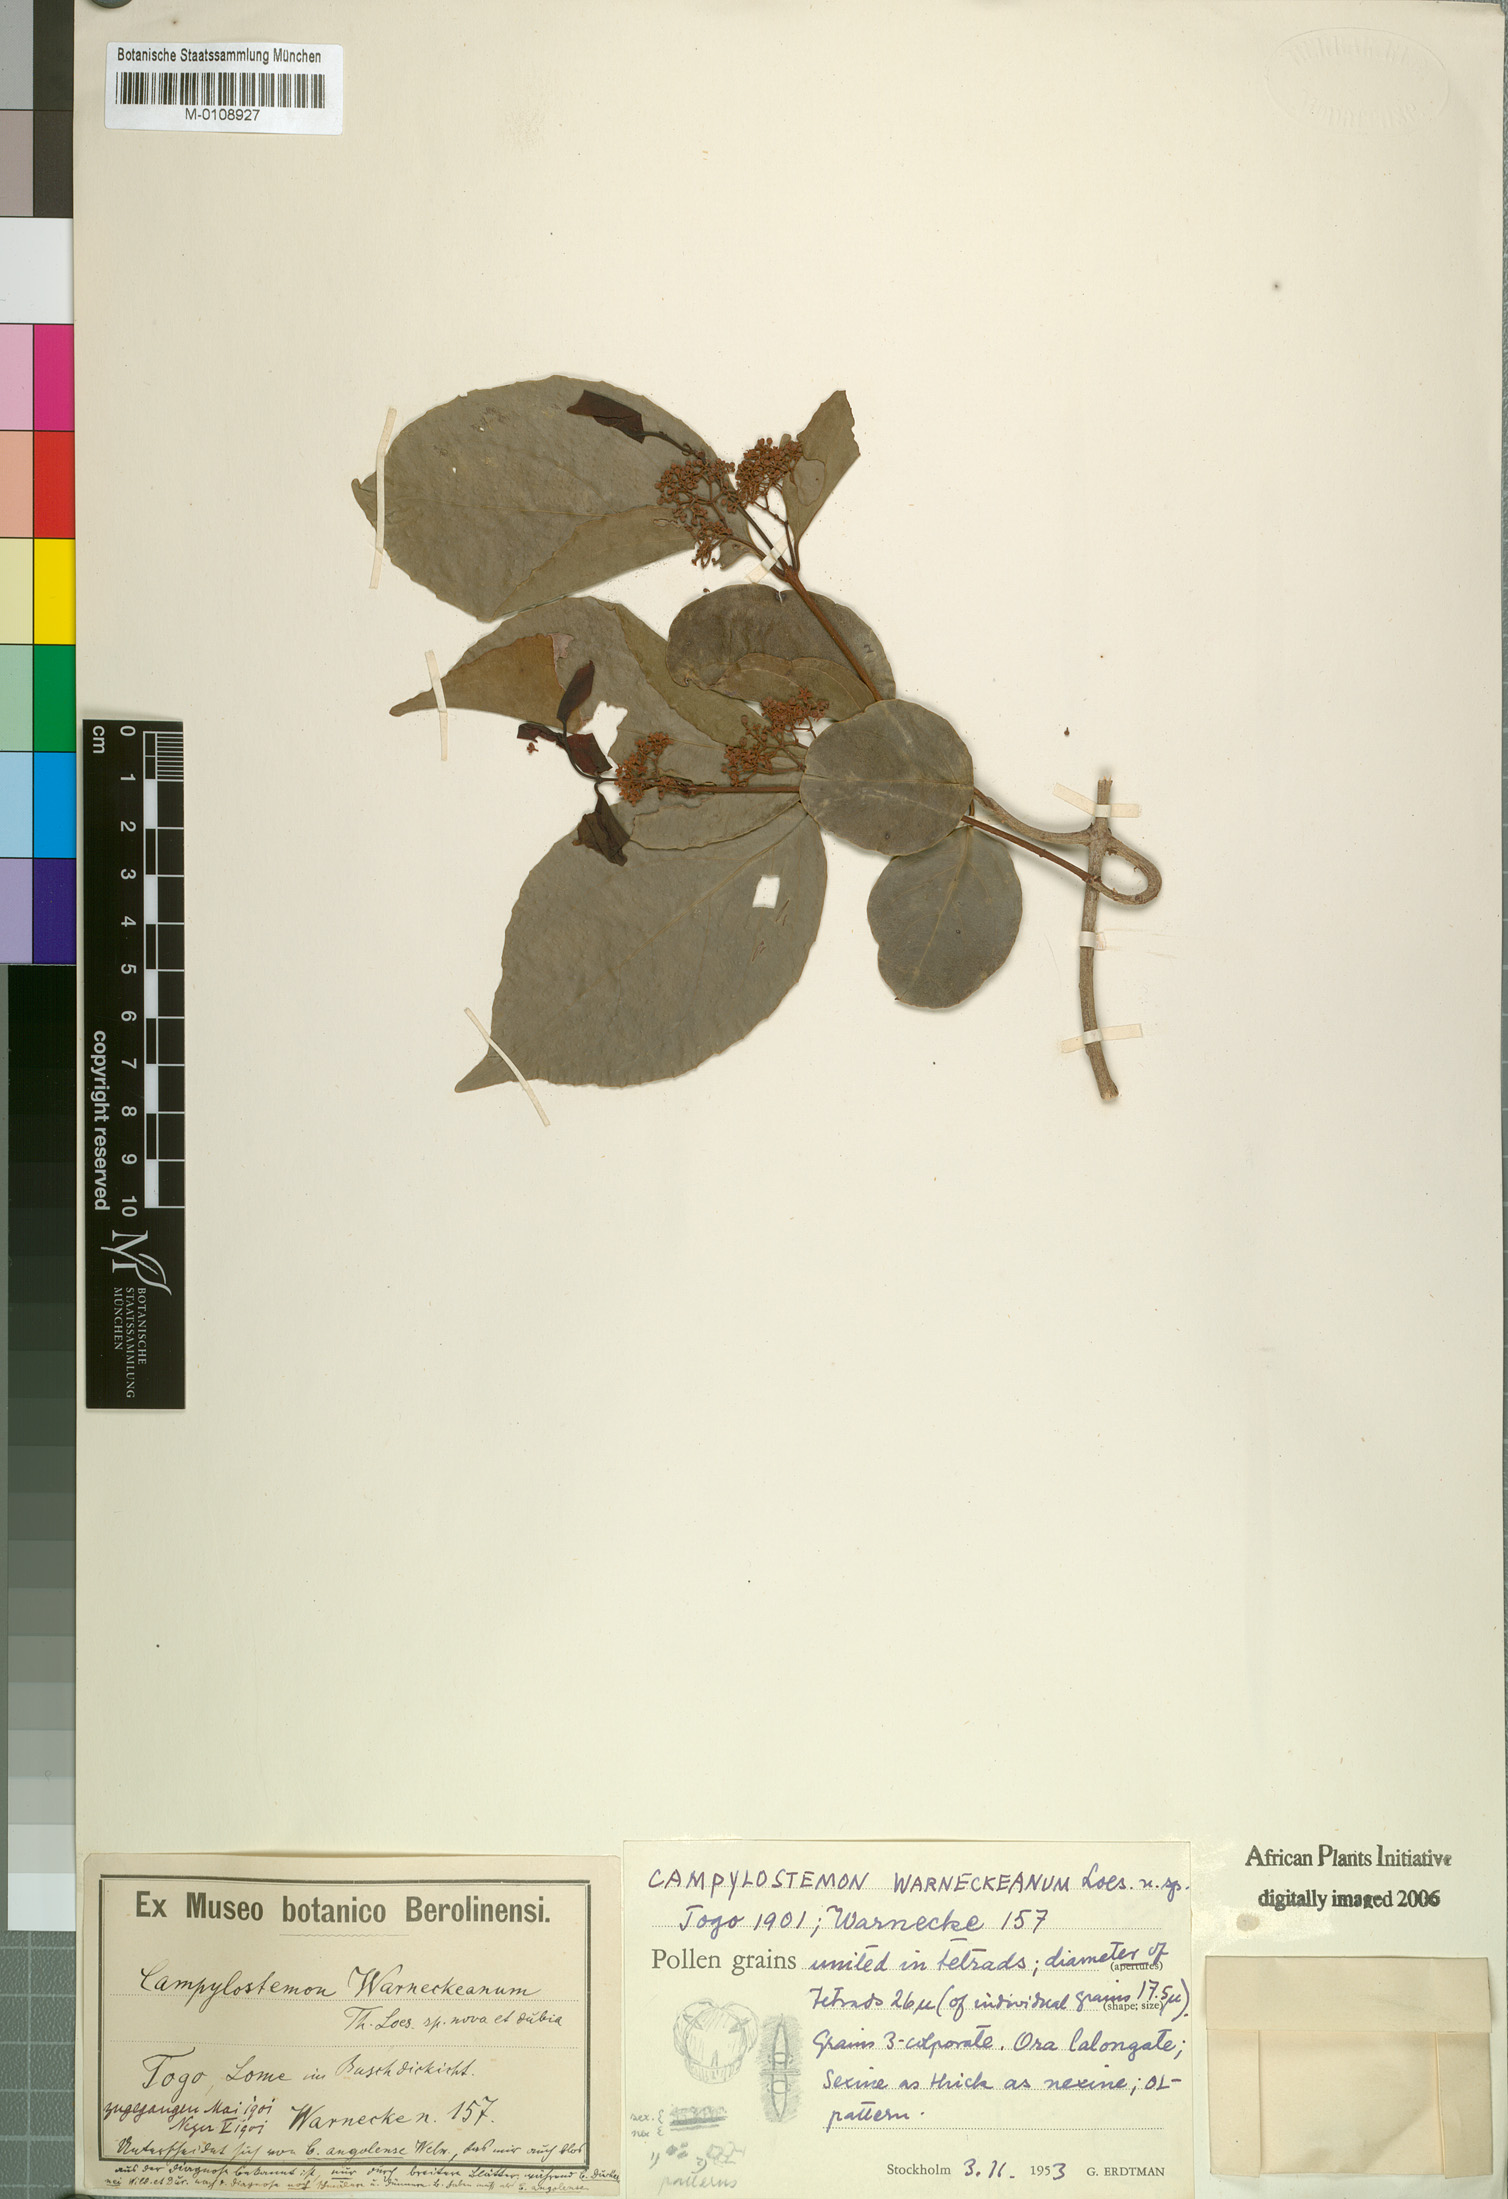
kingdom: Plantae
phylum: Tracheophyta
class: Magnoliopsida
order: Celastrales
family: Celastraceae
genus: Campylostemon
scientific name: Campylostemon warneckeanus
